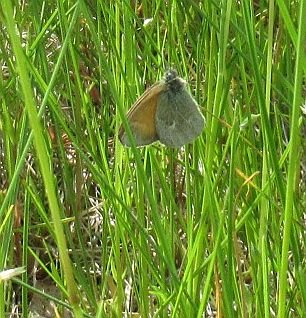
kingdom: Animalia
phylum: Arthropoda
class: Insecta
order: Lepidoptera
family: Nymphalidae
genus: Coenonympha
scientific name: Coenonympha tullia
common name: Large Heath
